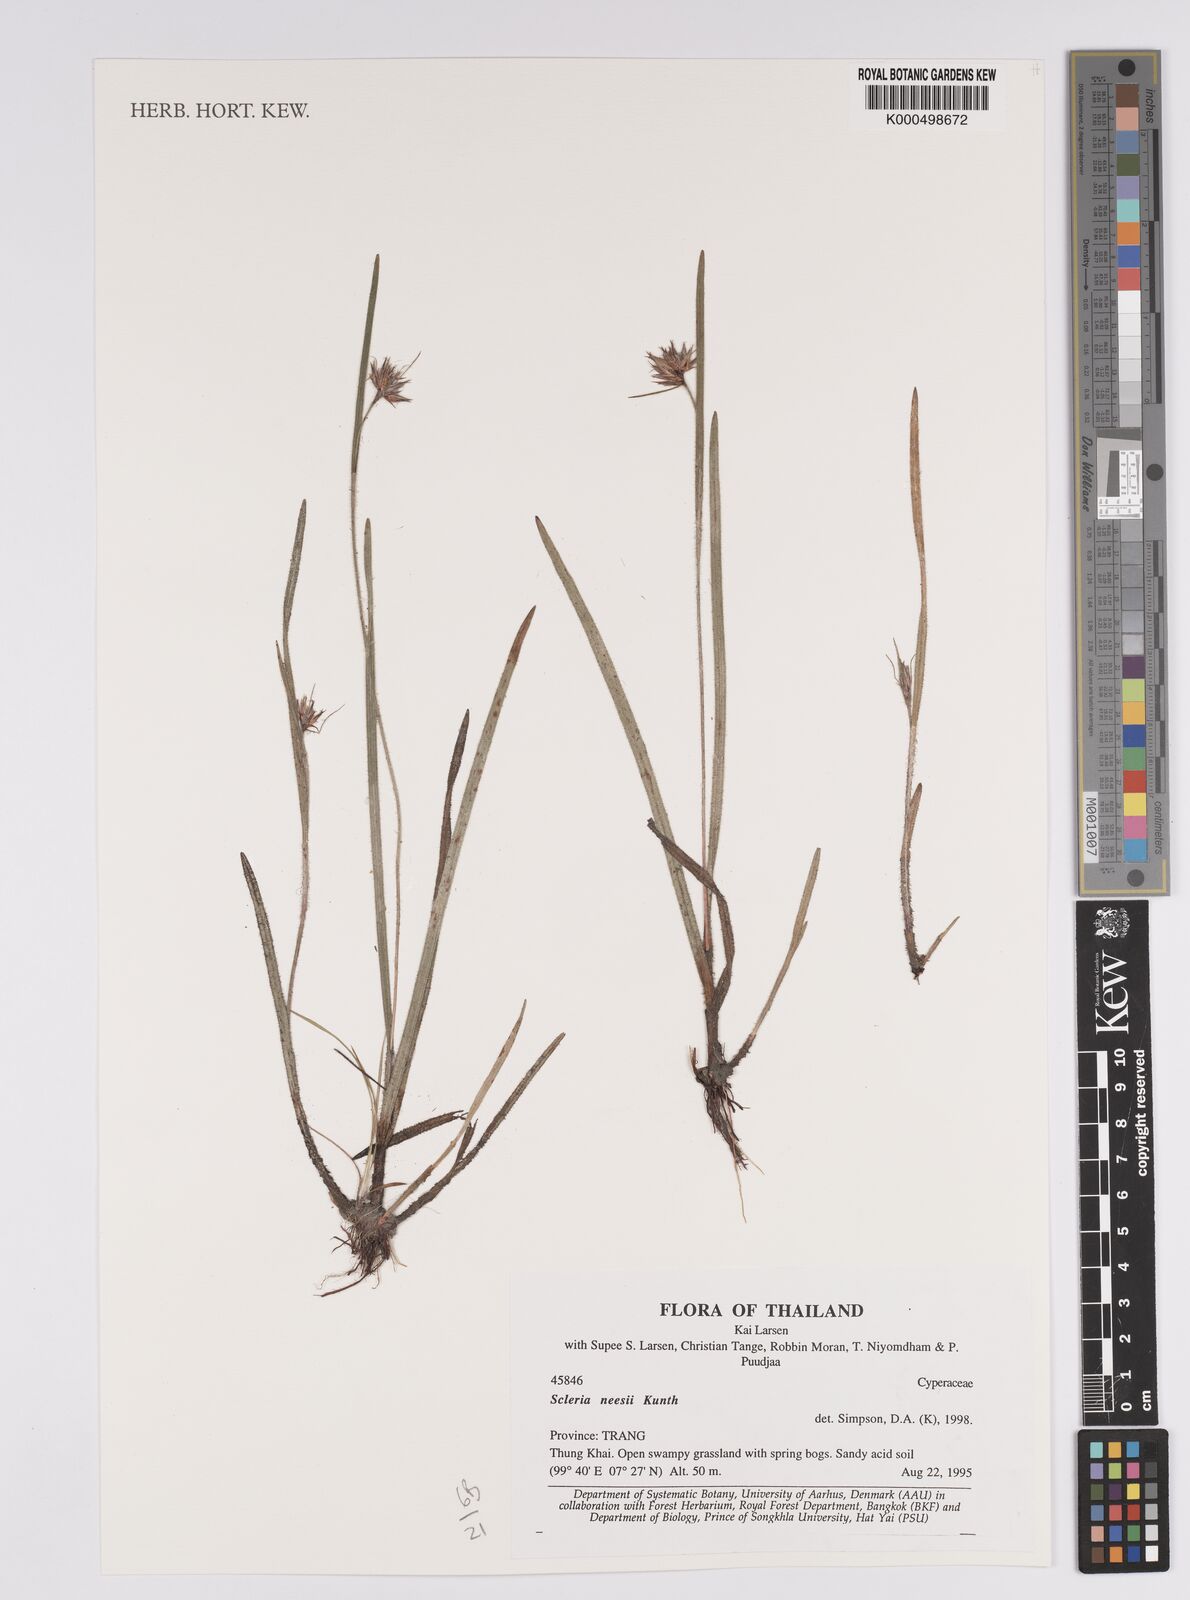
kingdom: Plantae
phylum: Tracheophyta
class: Liliopsida
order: Poales
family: Cyperaceae
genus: Scleria
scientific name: Scleria neesii
